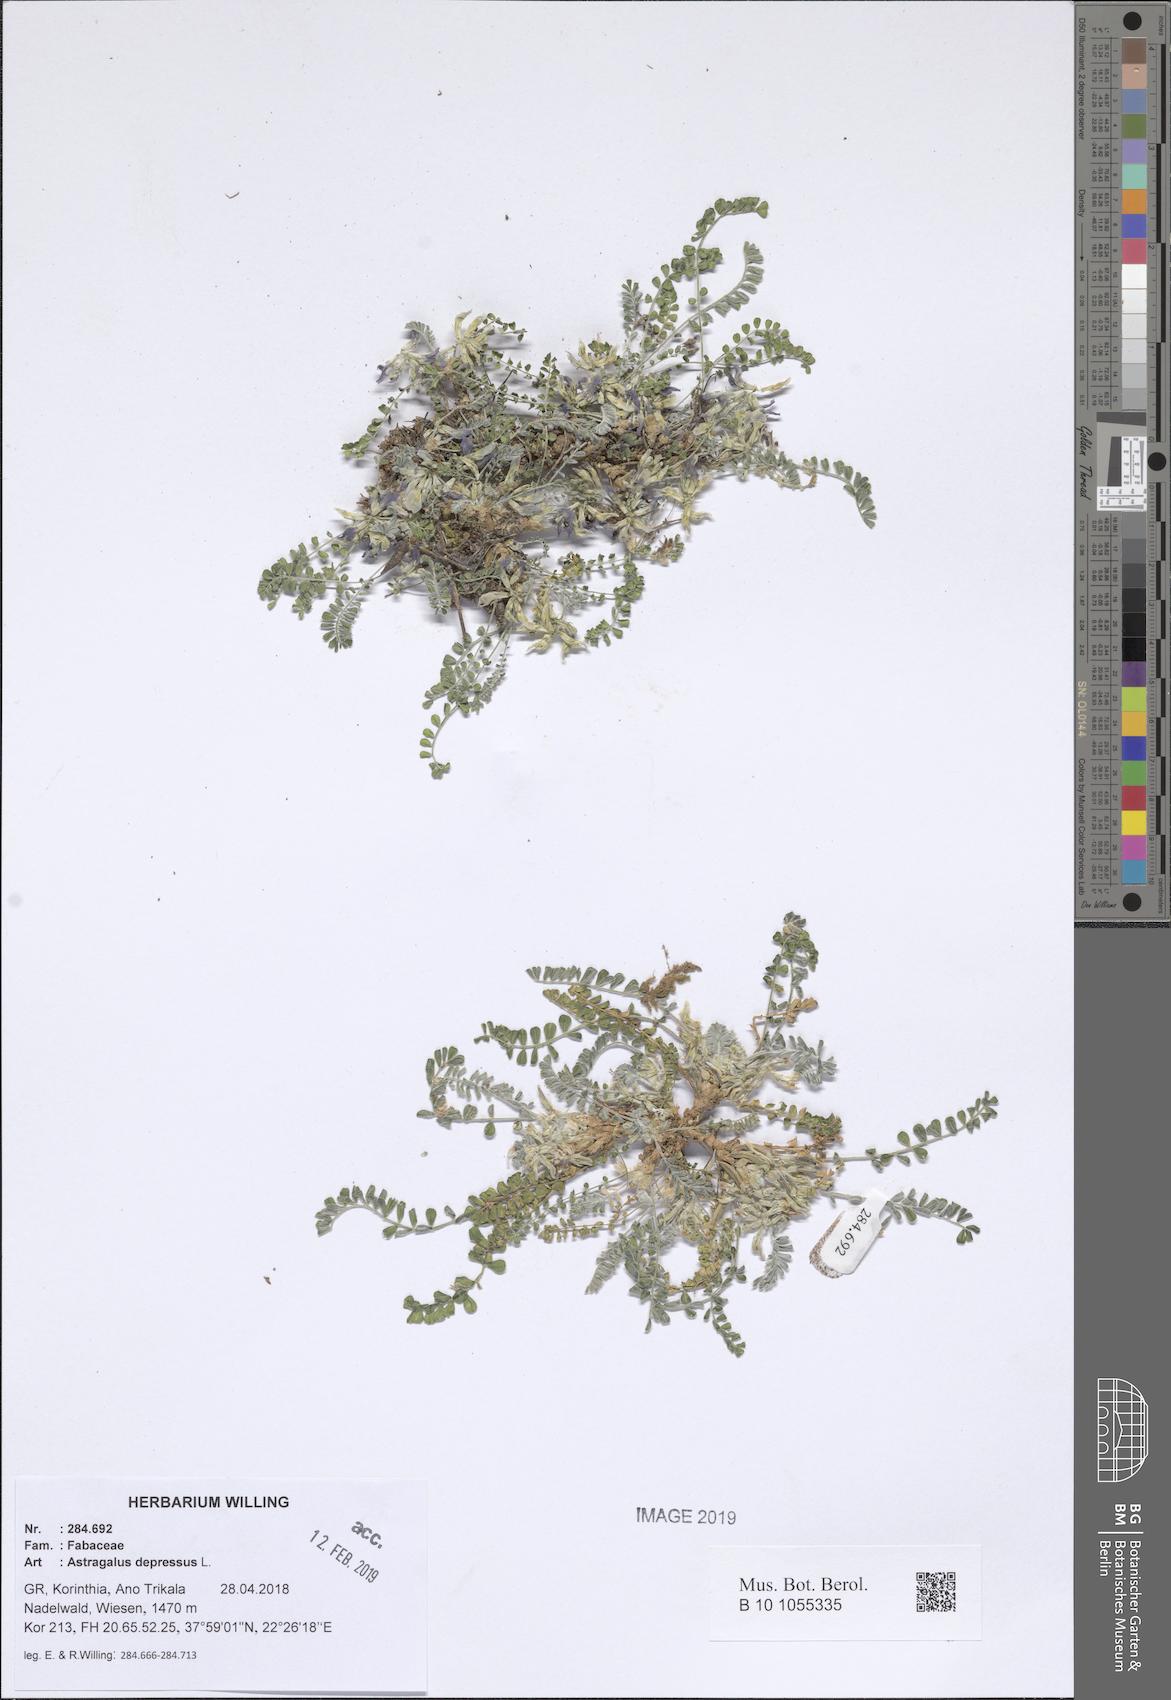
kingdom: Plantae
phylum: Tracheophyta
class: Magnoliopsida
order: Fabales
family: Fabaceae
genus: Astragalus
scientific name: Astragalus depressus
